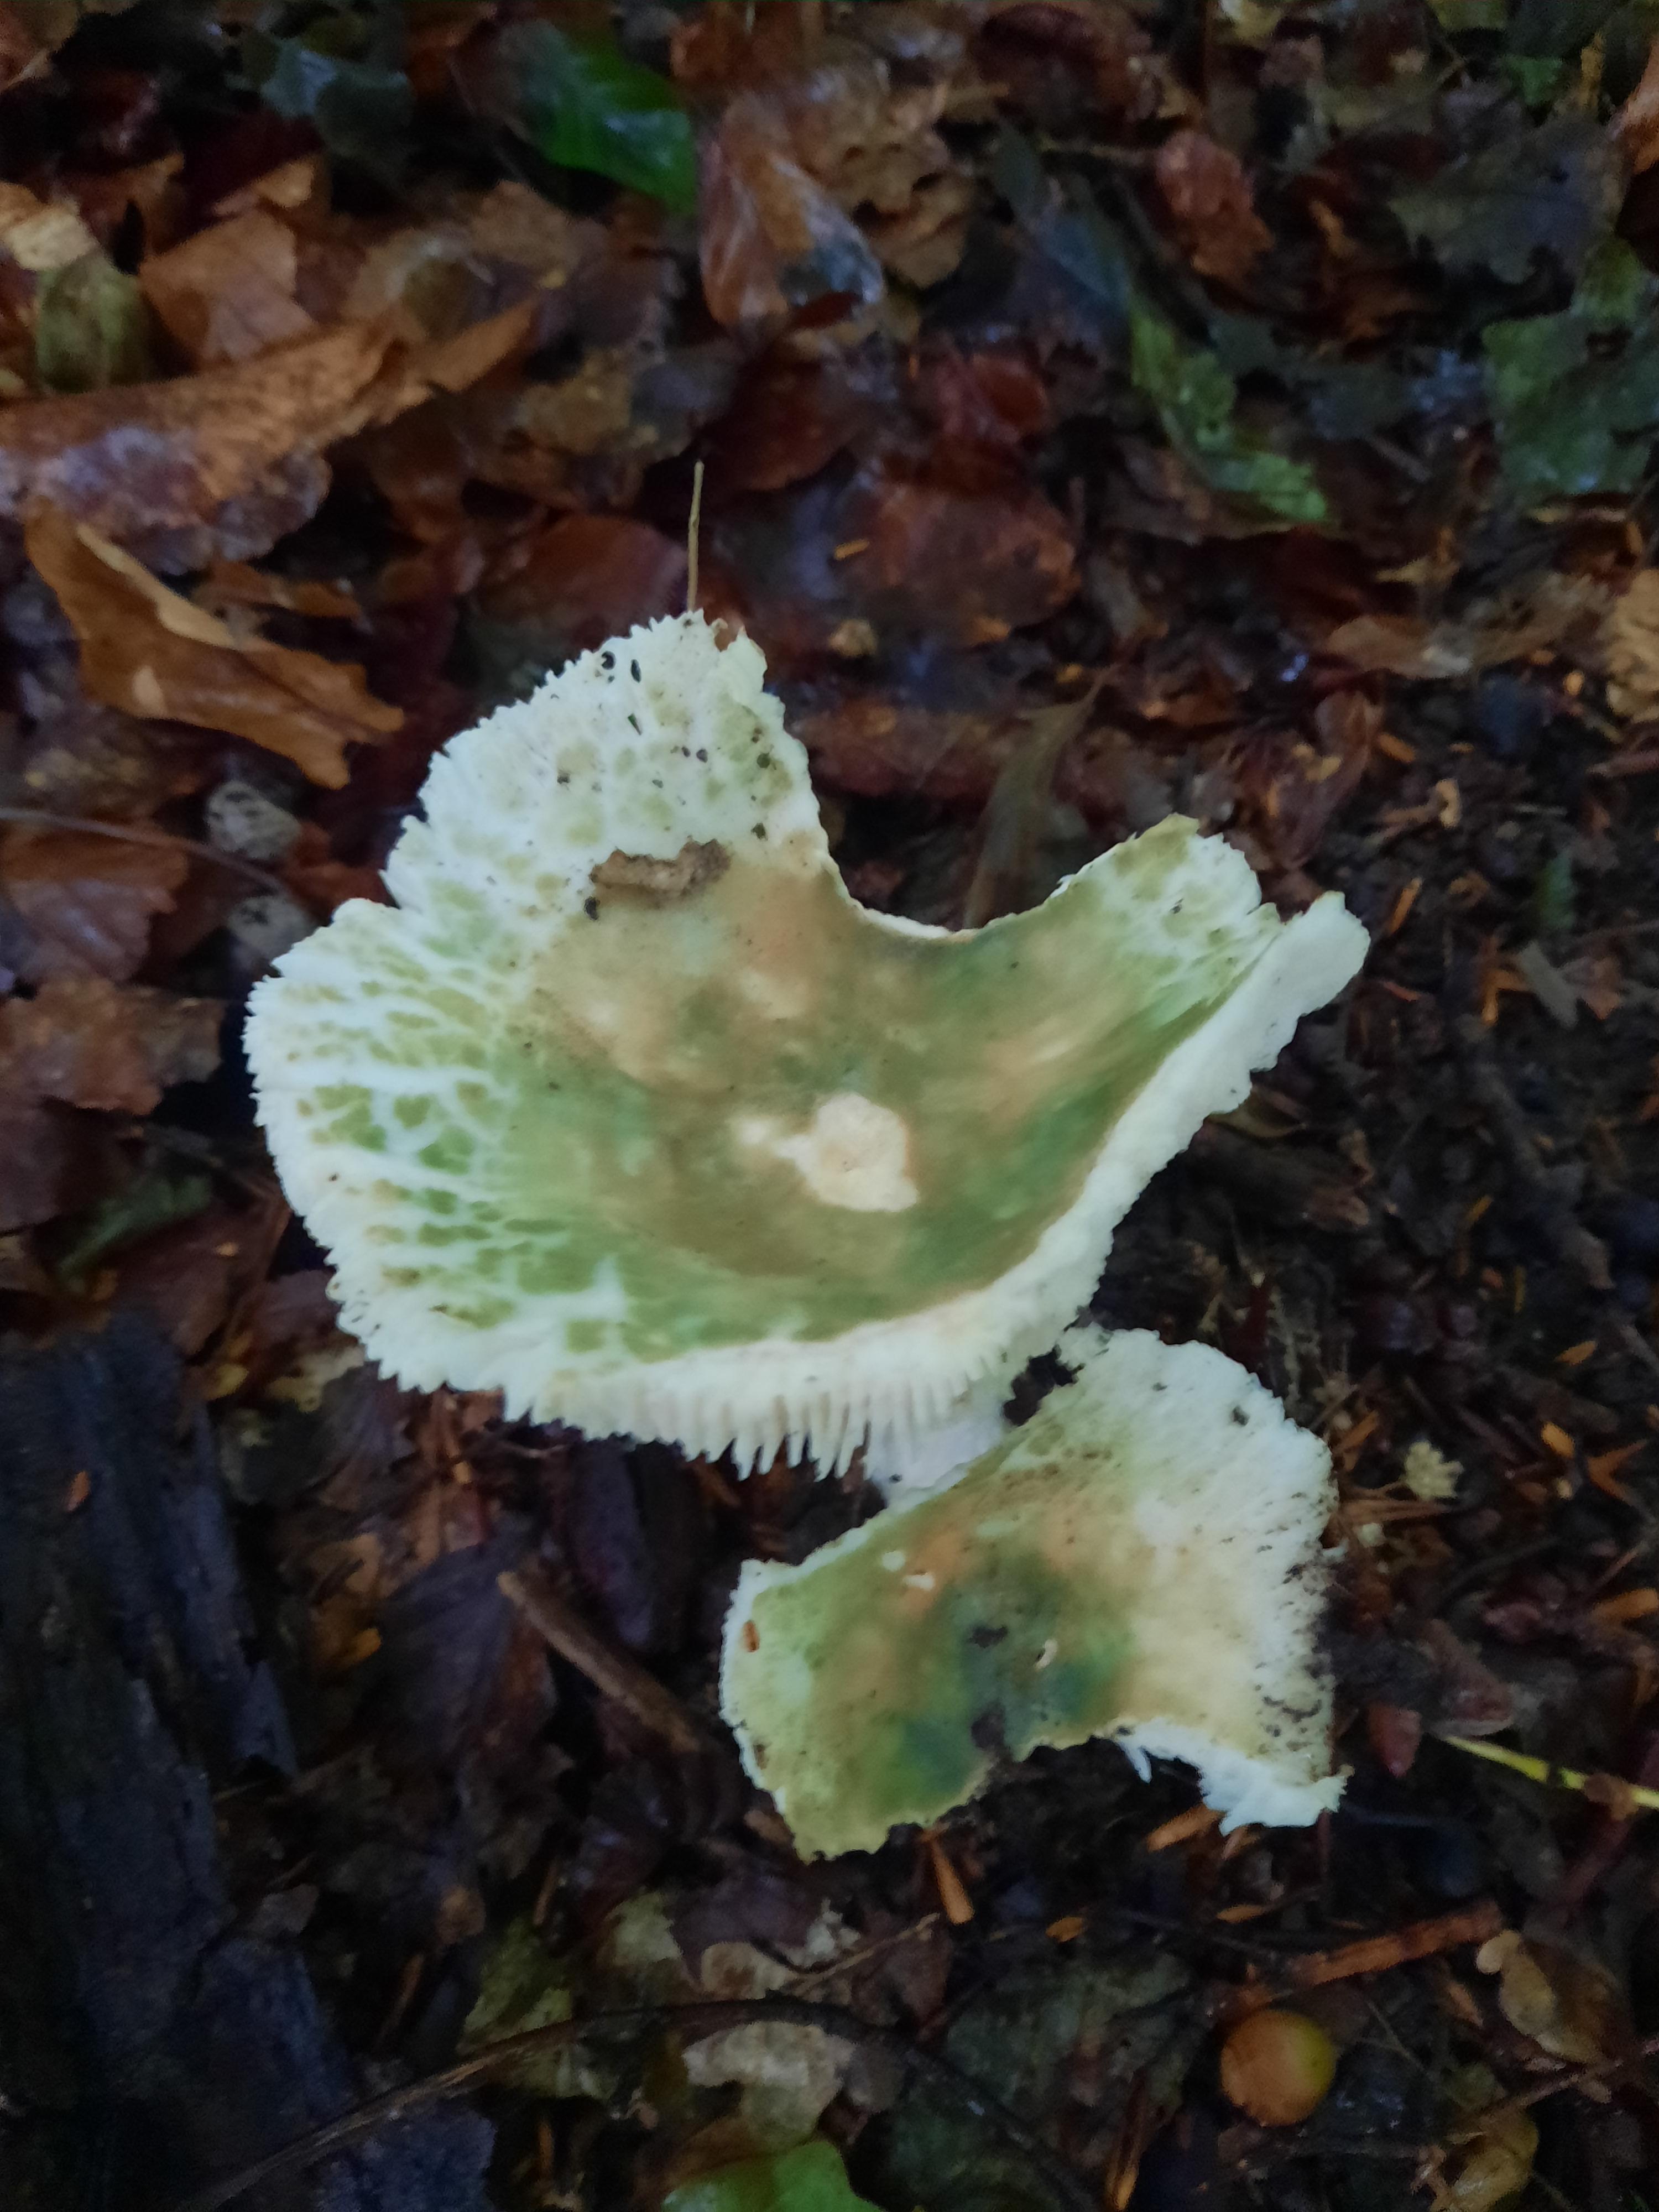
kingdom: Fungi
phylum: Basidiomycota
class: Agaricomycetes
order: Russulales
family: Russulaceae
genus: Russula
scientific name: Russula virescens
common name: spanskgrøn skørhat
